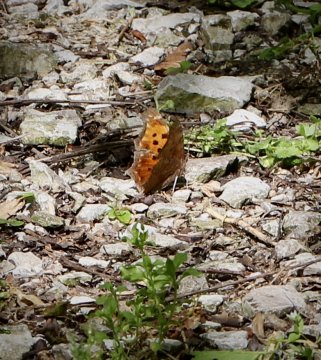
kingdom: Animalia
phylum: Arthropoda
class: Insecta
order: Lepidoptera
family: Nymphalidae
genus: Polygonia
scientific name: Polygonia comma
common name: Eastern Comma
